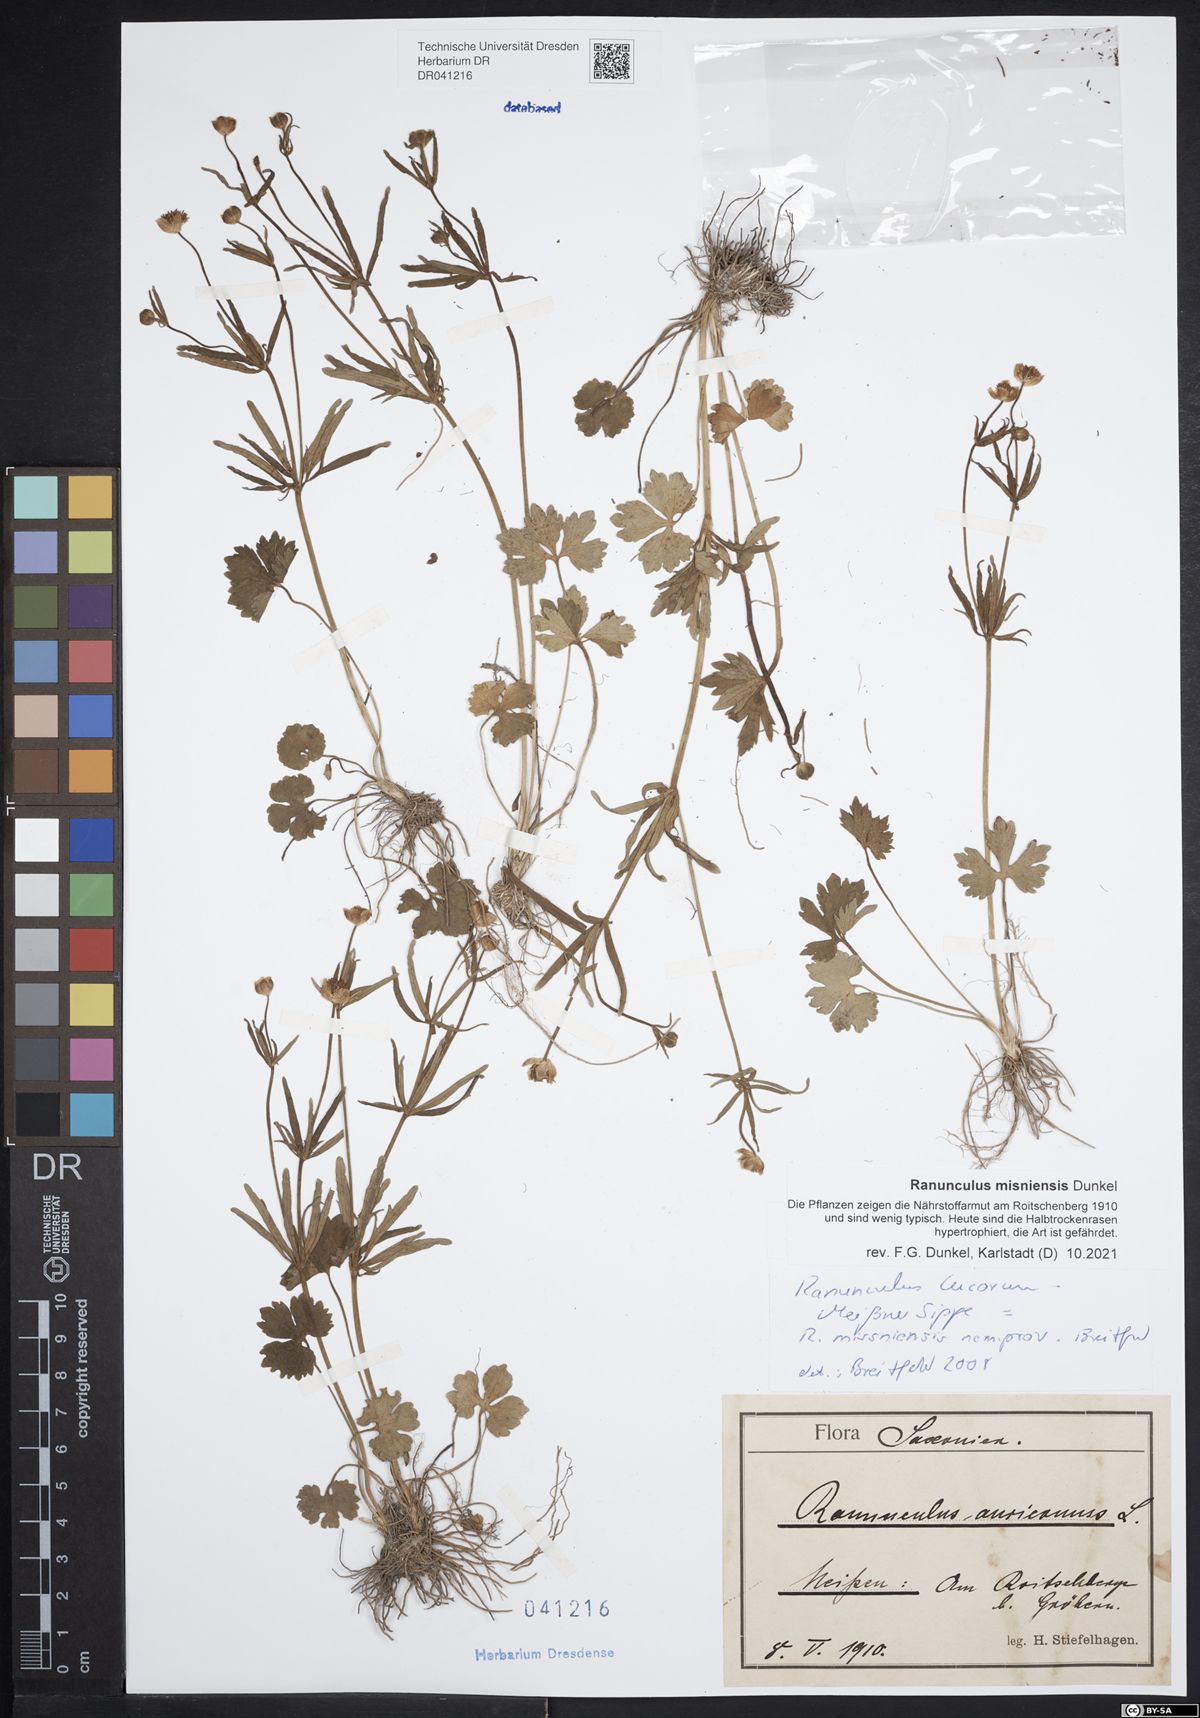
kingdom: Plantae
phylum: Tracheophyta
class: Magnoliopsida
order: Ranunculales
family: Ranunculaceae
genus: Ranunculus
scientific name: Ranunculus misniensis
